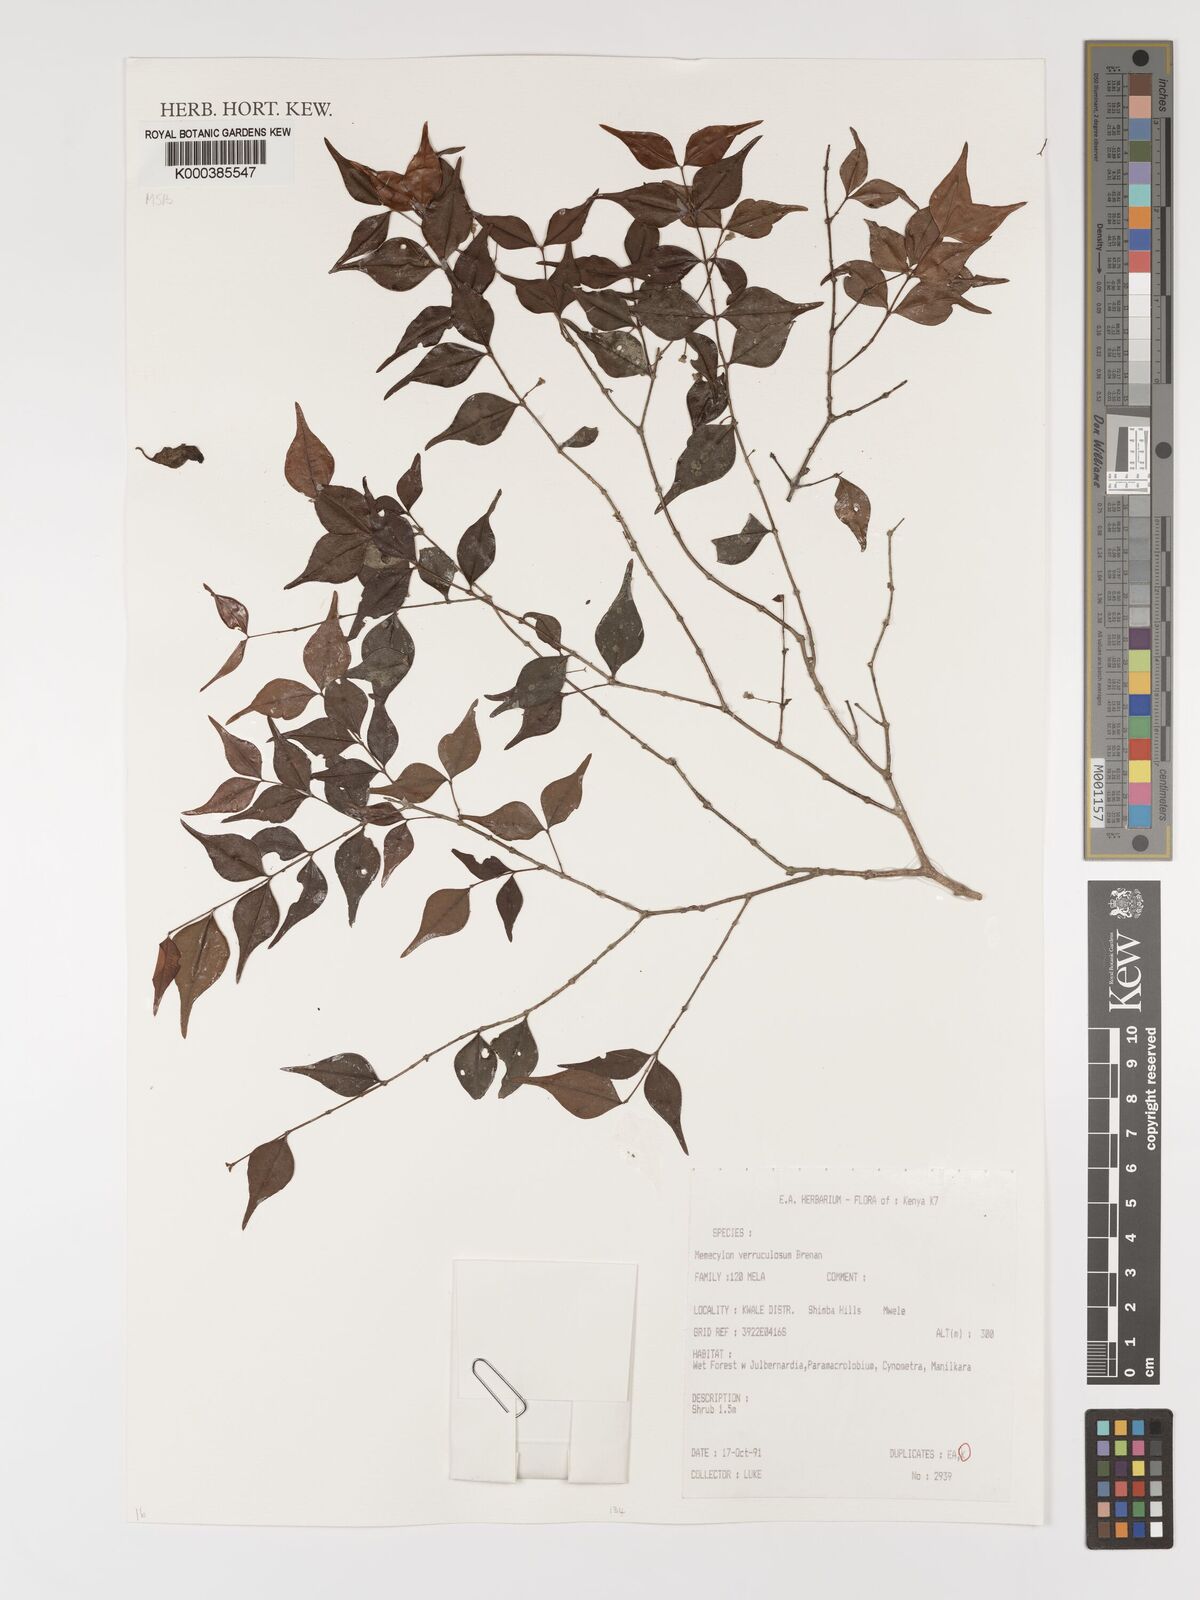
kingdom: Plantae
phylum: Tracheophyta
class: Magnoliopsida
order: Myrtales
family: Melastomataceae
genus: Memecylon
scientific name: Memecylon verruculosum
